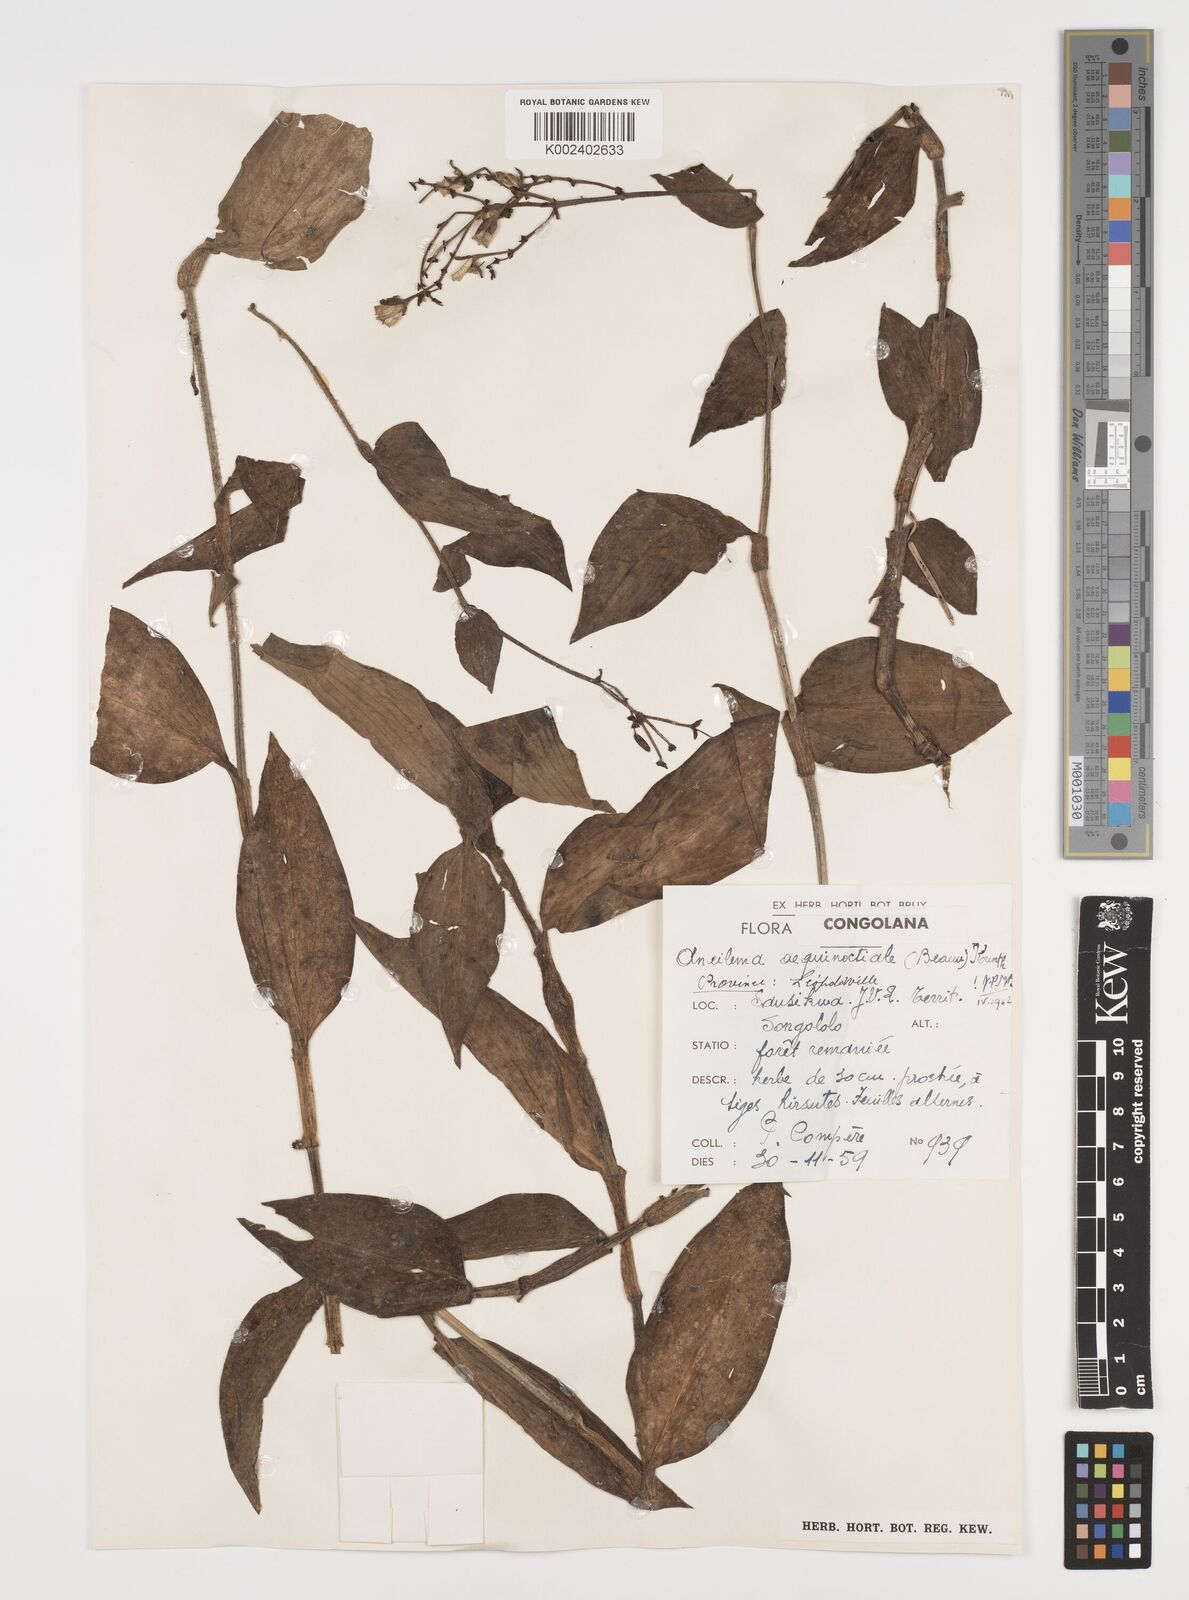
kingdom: Plantae
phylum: Tracheophyta
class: Liliopsida
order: Commelinales
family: Commelinaceae
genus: Aneilema
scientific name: Aneilema aequinoctiale
